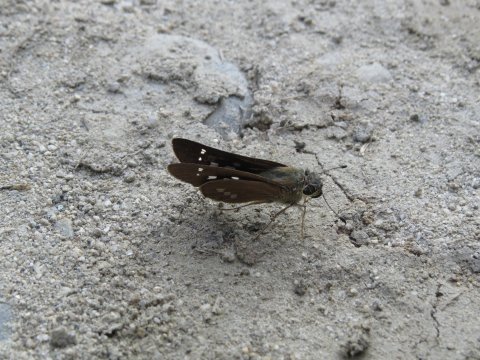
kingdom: Animalia
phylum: Arthropoda
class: Insecta
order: Lepidoptera
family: Hesperiidae
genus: Calpodes
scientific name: Calpodes ethlius
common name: Brazilian Skipper
